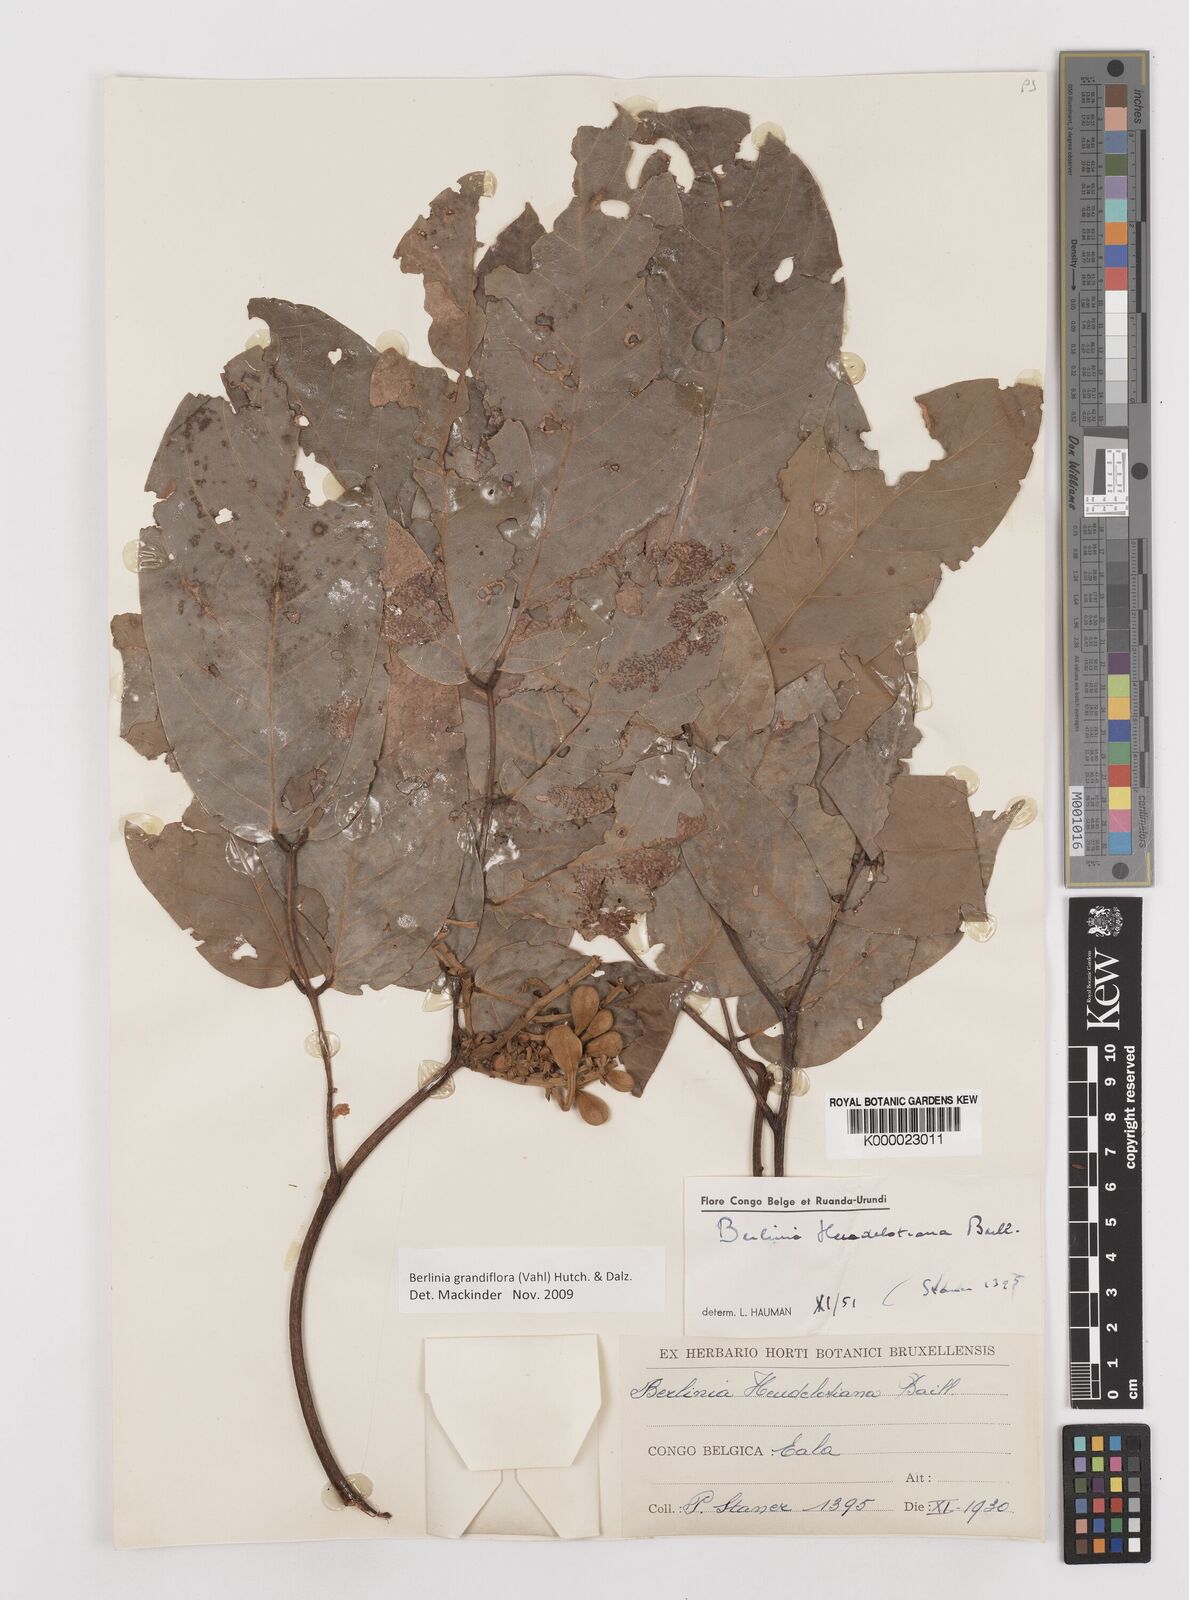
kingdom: Plantae
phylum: Tracheophyta
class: Magnoliopsida
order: Fabales
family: Fabaceae
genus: Berlinia
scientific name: Berlinia grandiflora
